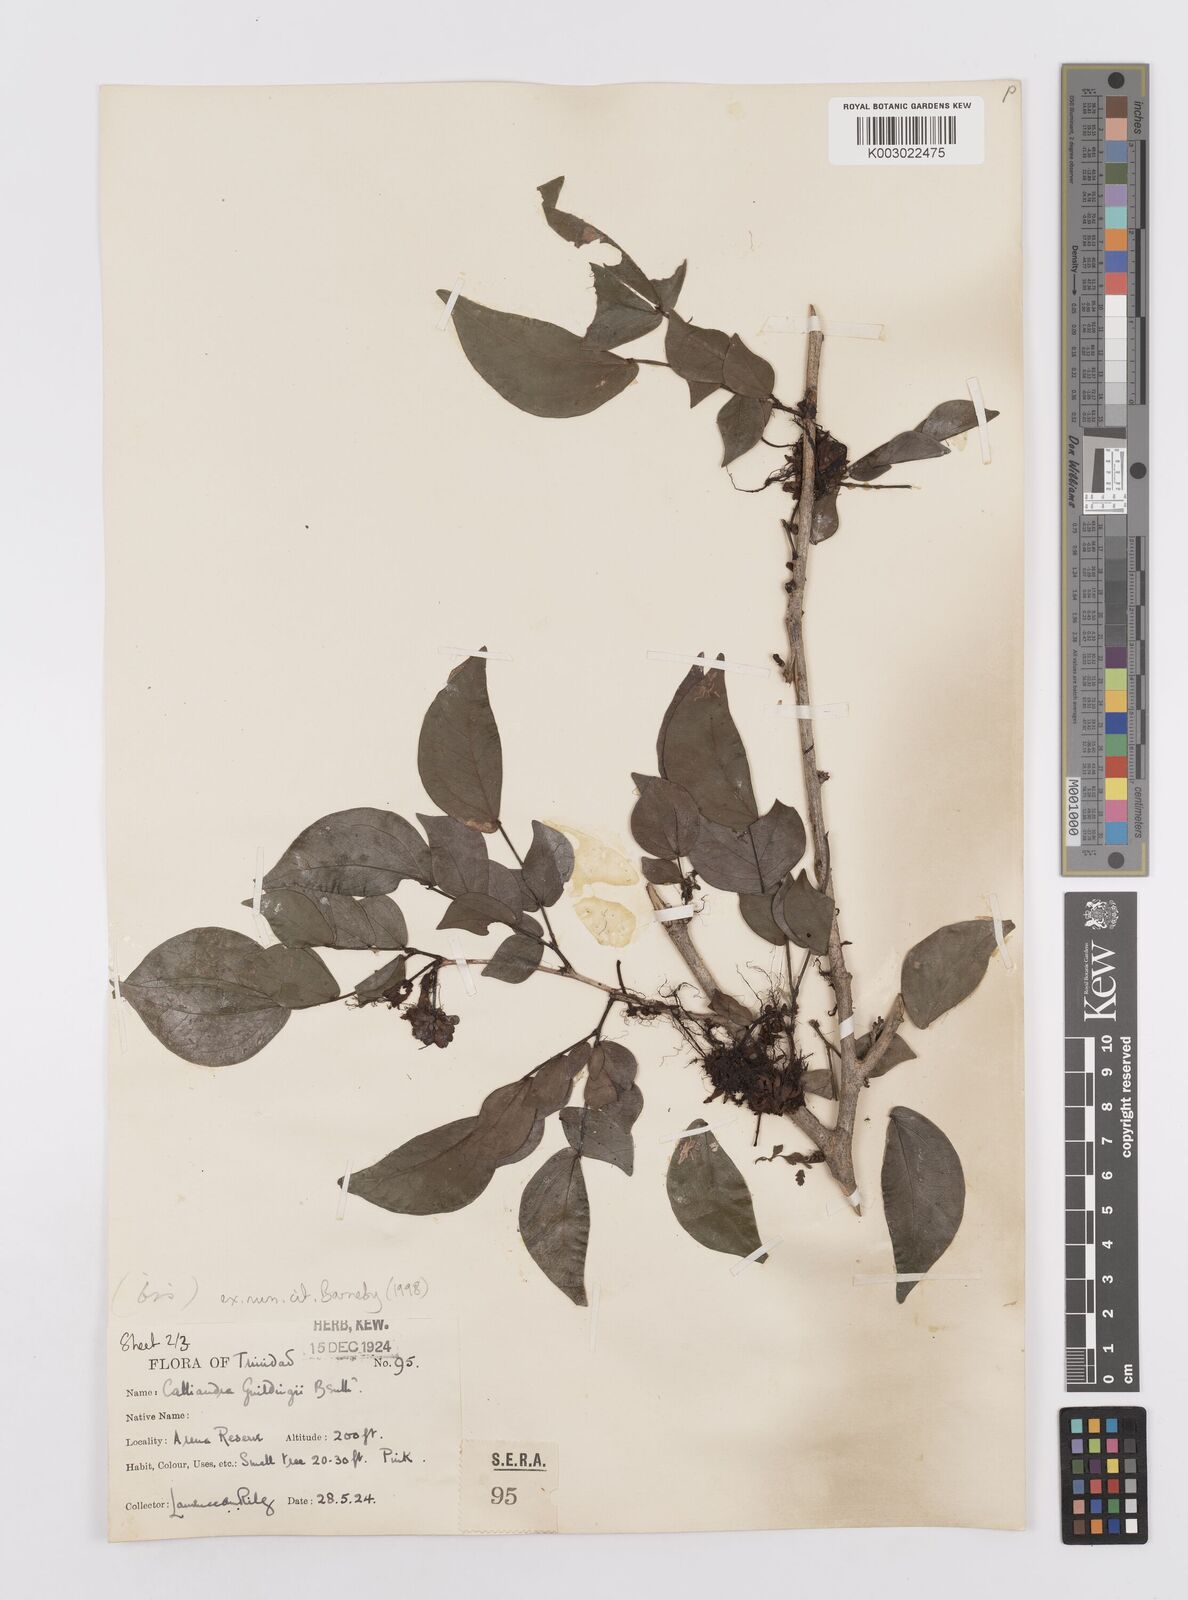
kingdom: Plantae
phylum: Tracheophyta
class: Magnoliopsida
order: Fabales
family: Fabaceae
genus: Calliandra
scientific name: Calliandra guildingii
